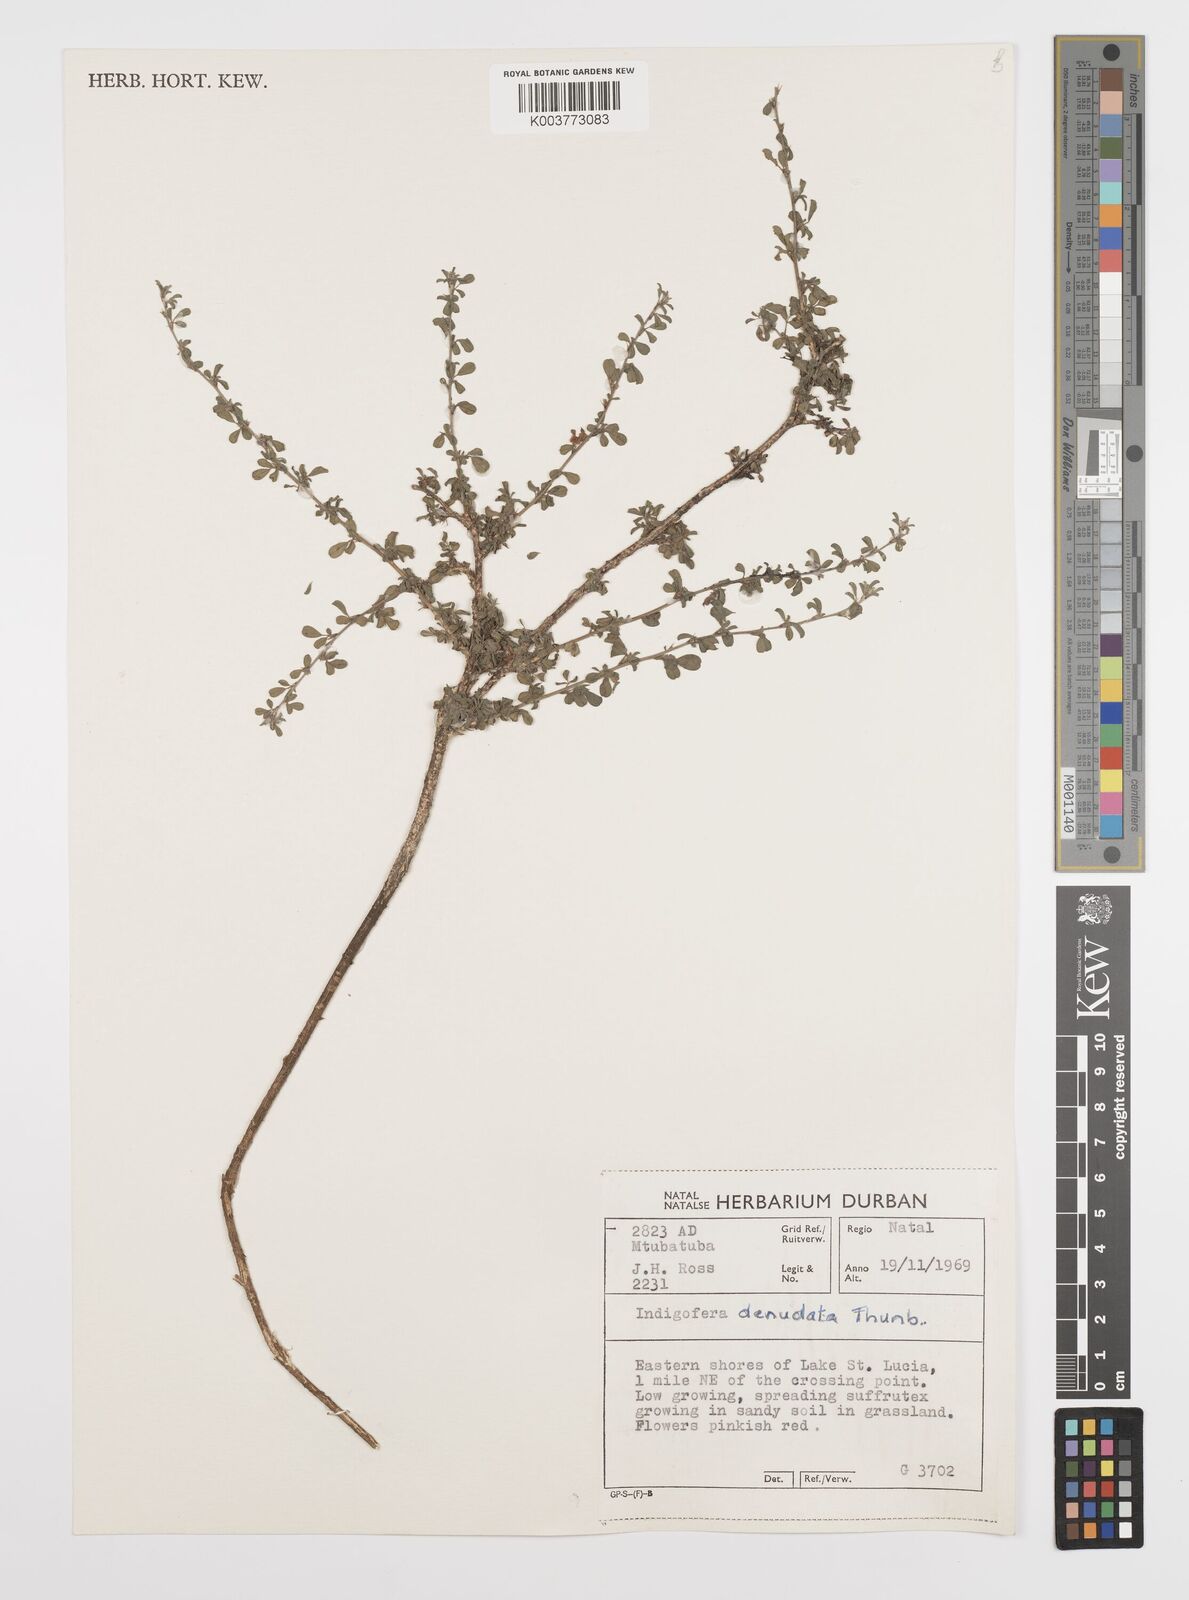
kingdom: Plantae
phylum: Tracheophyta
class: Magnoliopsida
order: Fabales
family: Fabaceae
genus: Indigofera
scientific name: Indigofera
